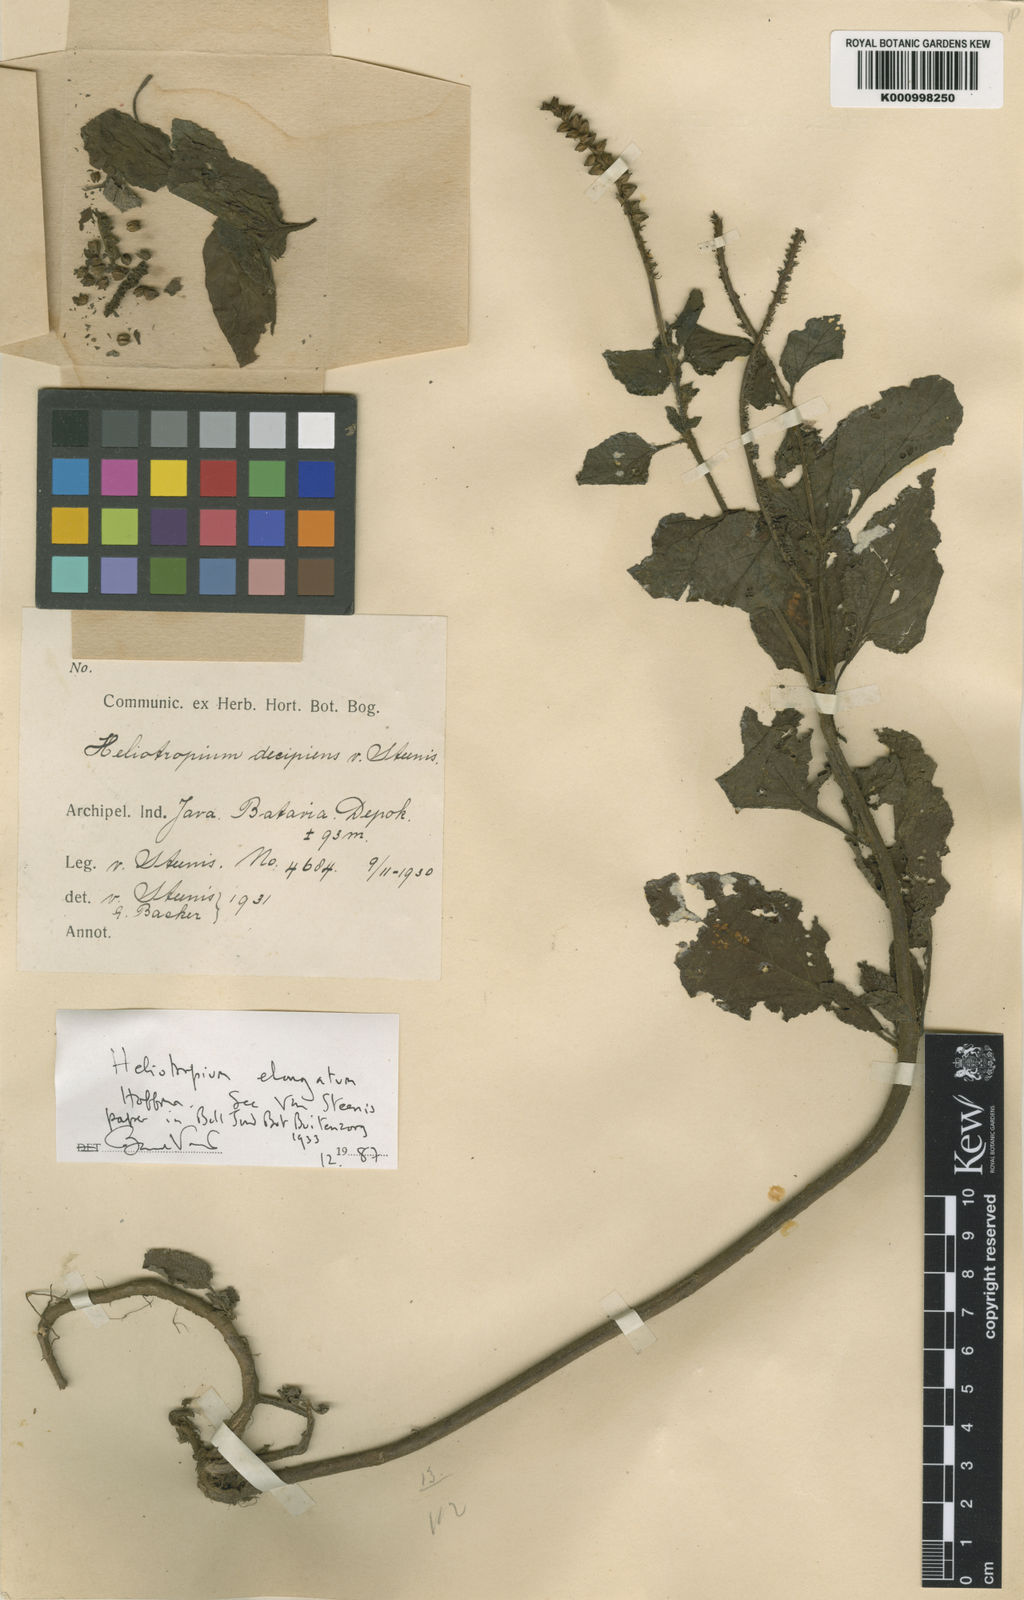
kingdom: Plantae
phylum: Tracheophyta
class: Magnoliopsida
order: Boraginales
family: Heliotropiaceae
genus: Heliotropium
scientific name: Heliotropium
